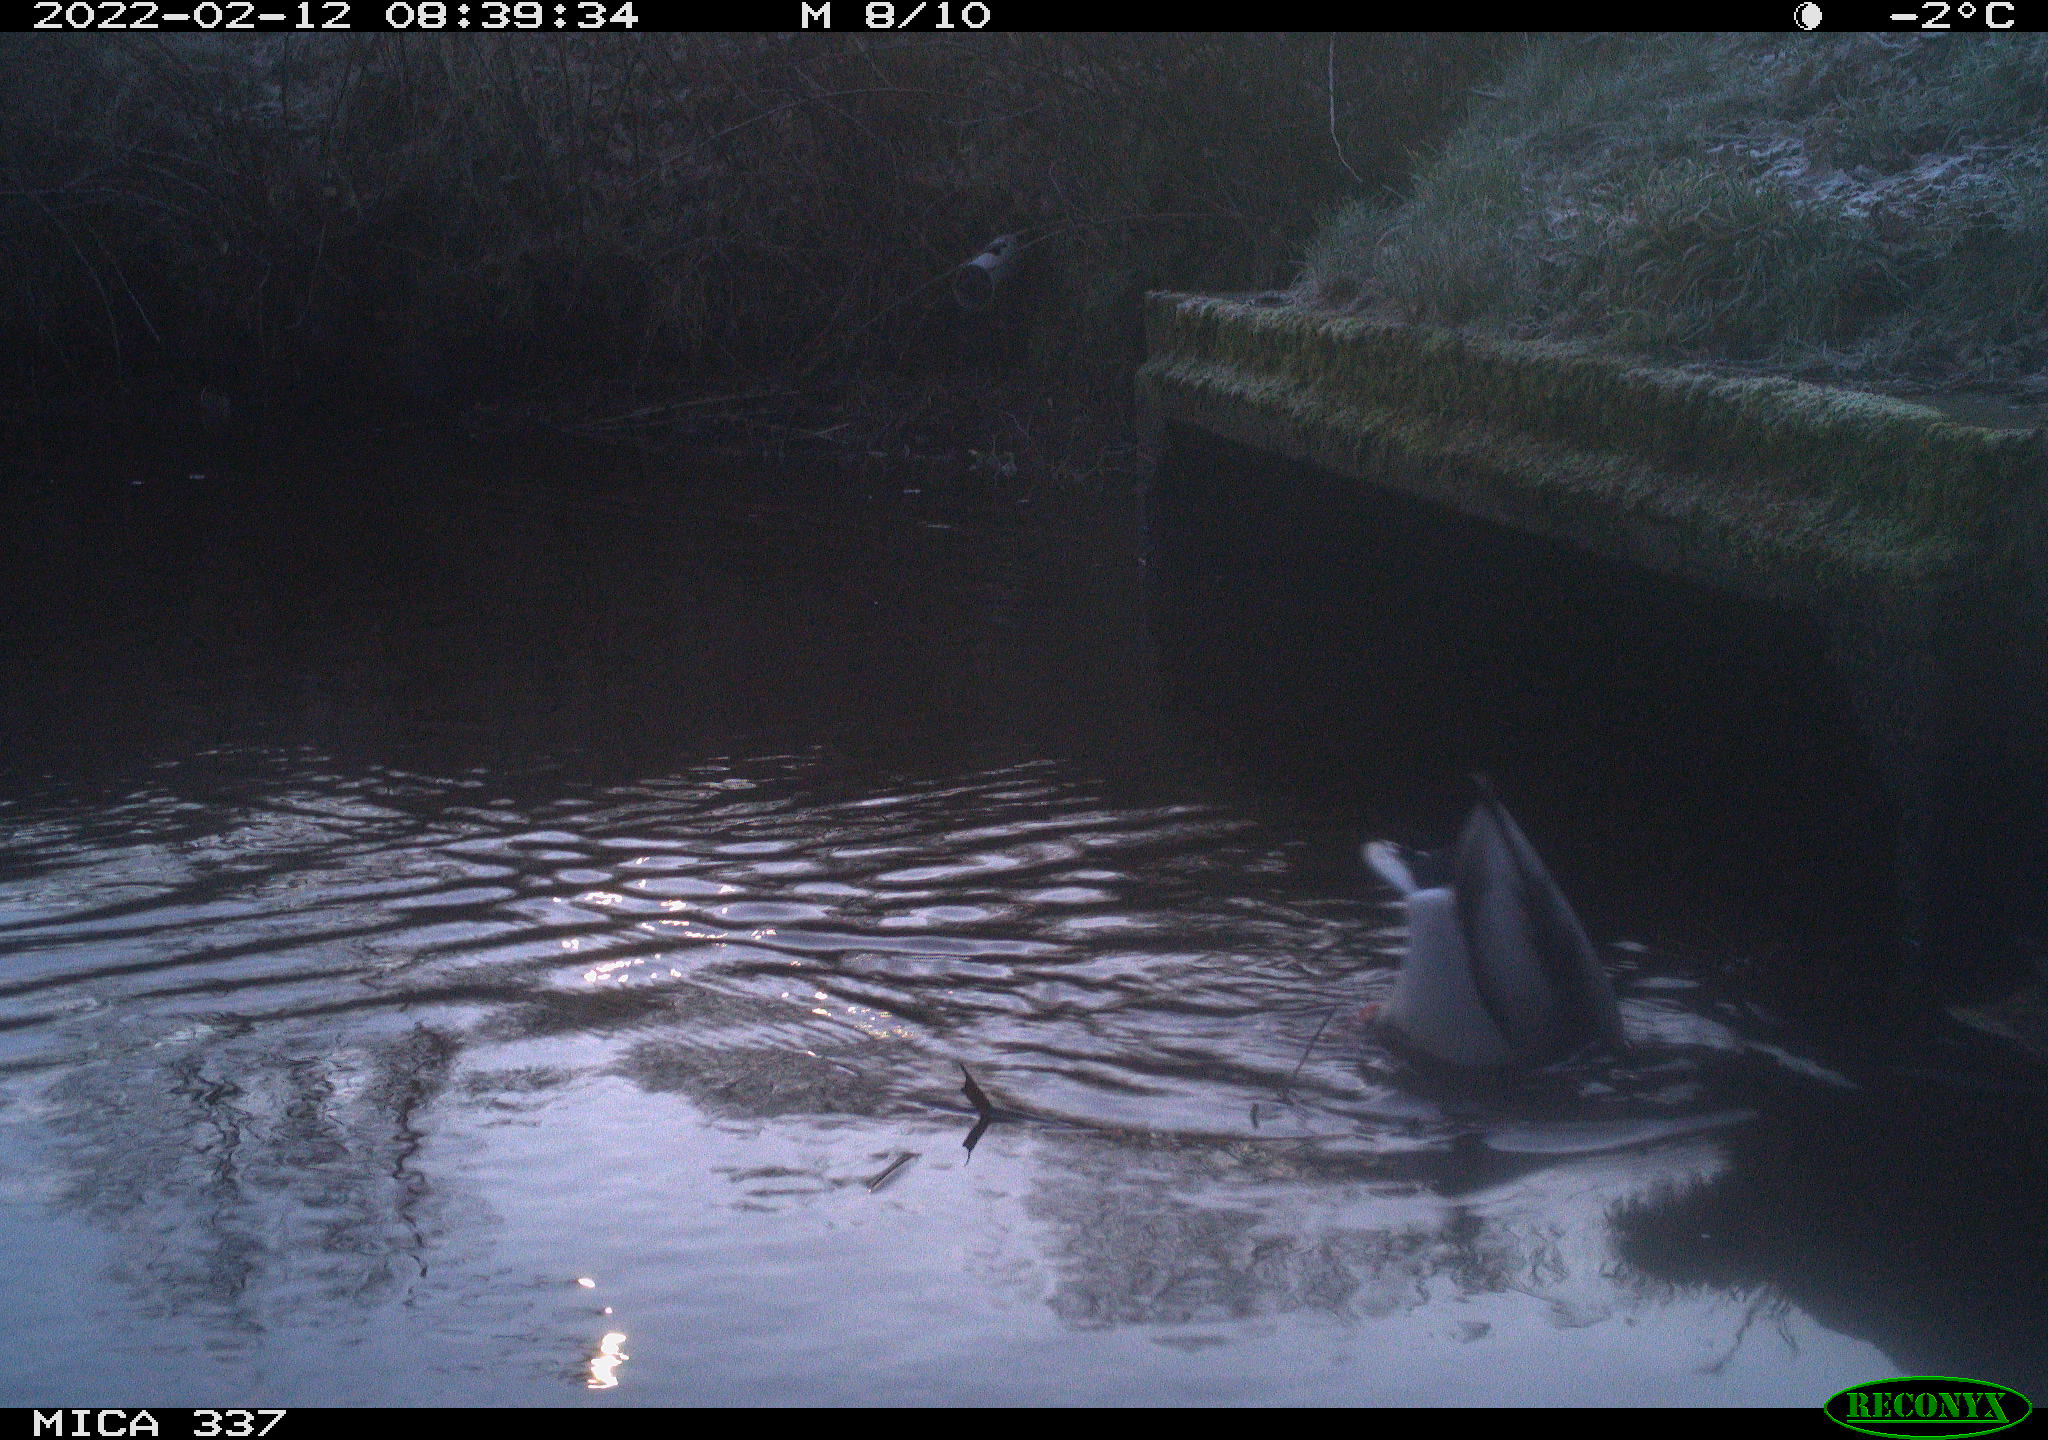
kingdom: Animalia
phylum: Chordata
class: Aves
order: Anseriformes
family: Anatidae
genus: Anas
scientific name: Anas platyrhynchos
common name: Mallard
